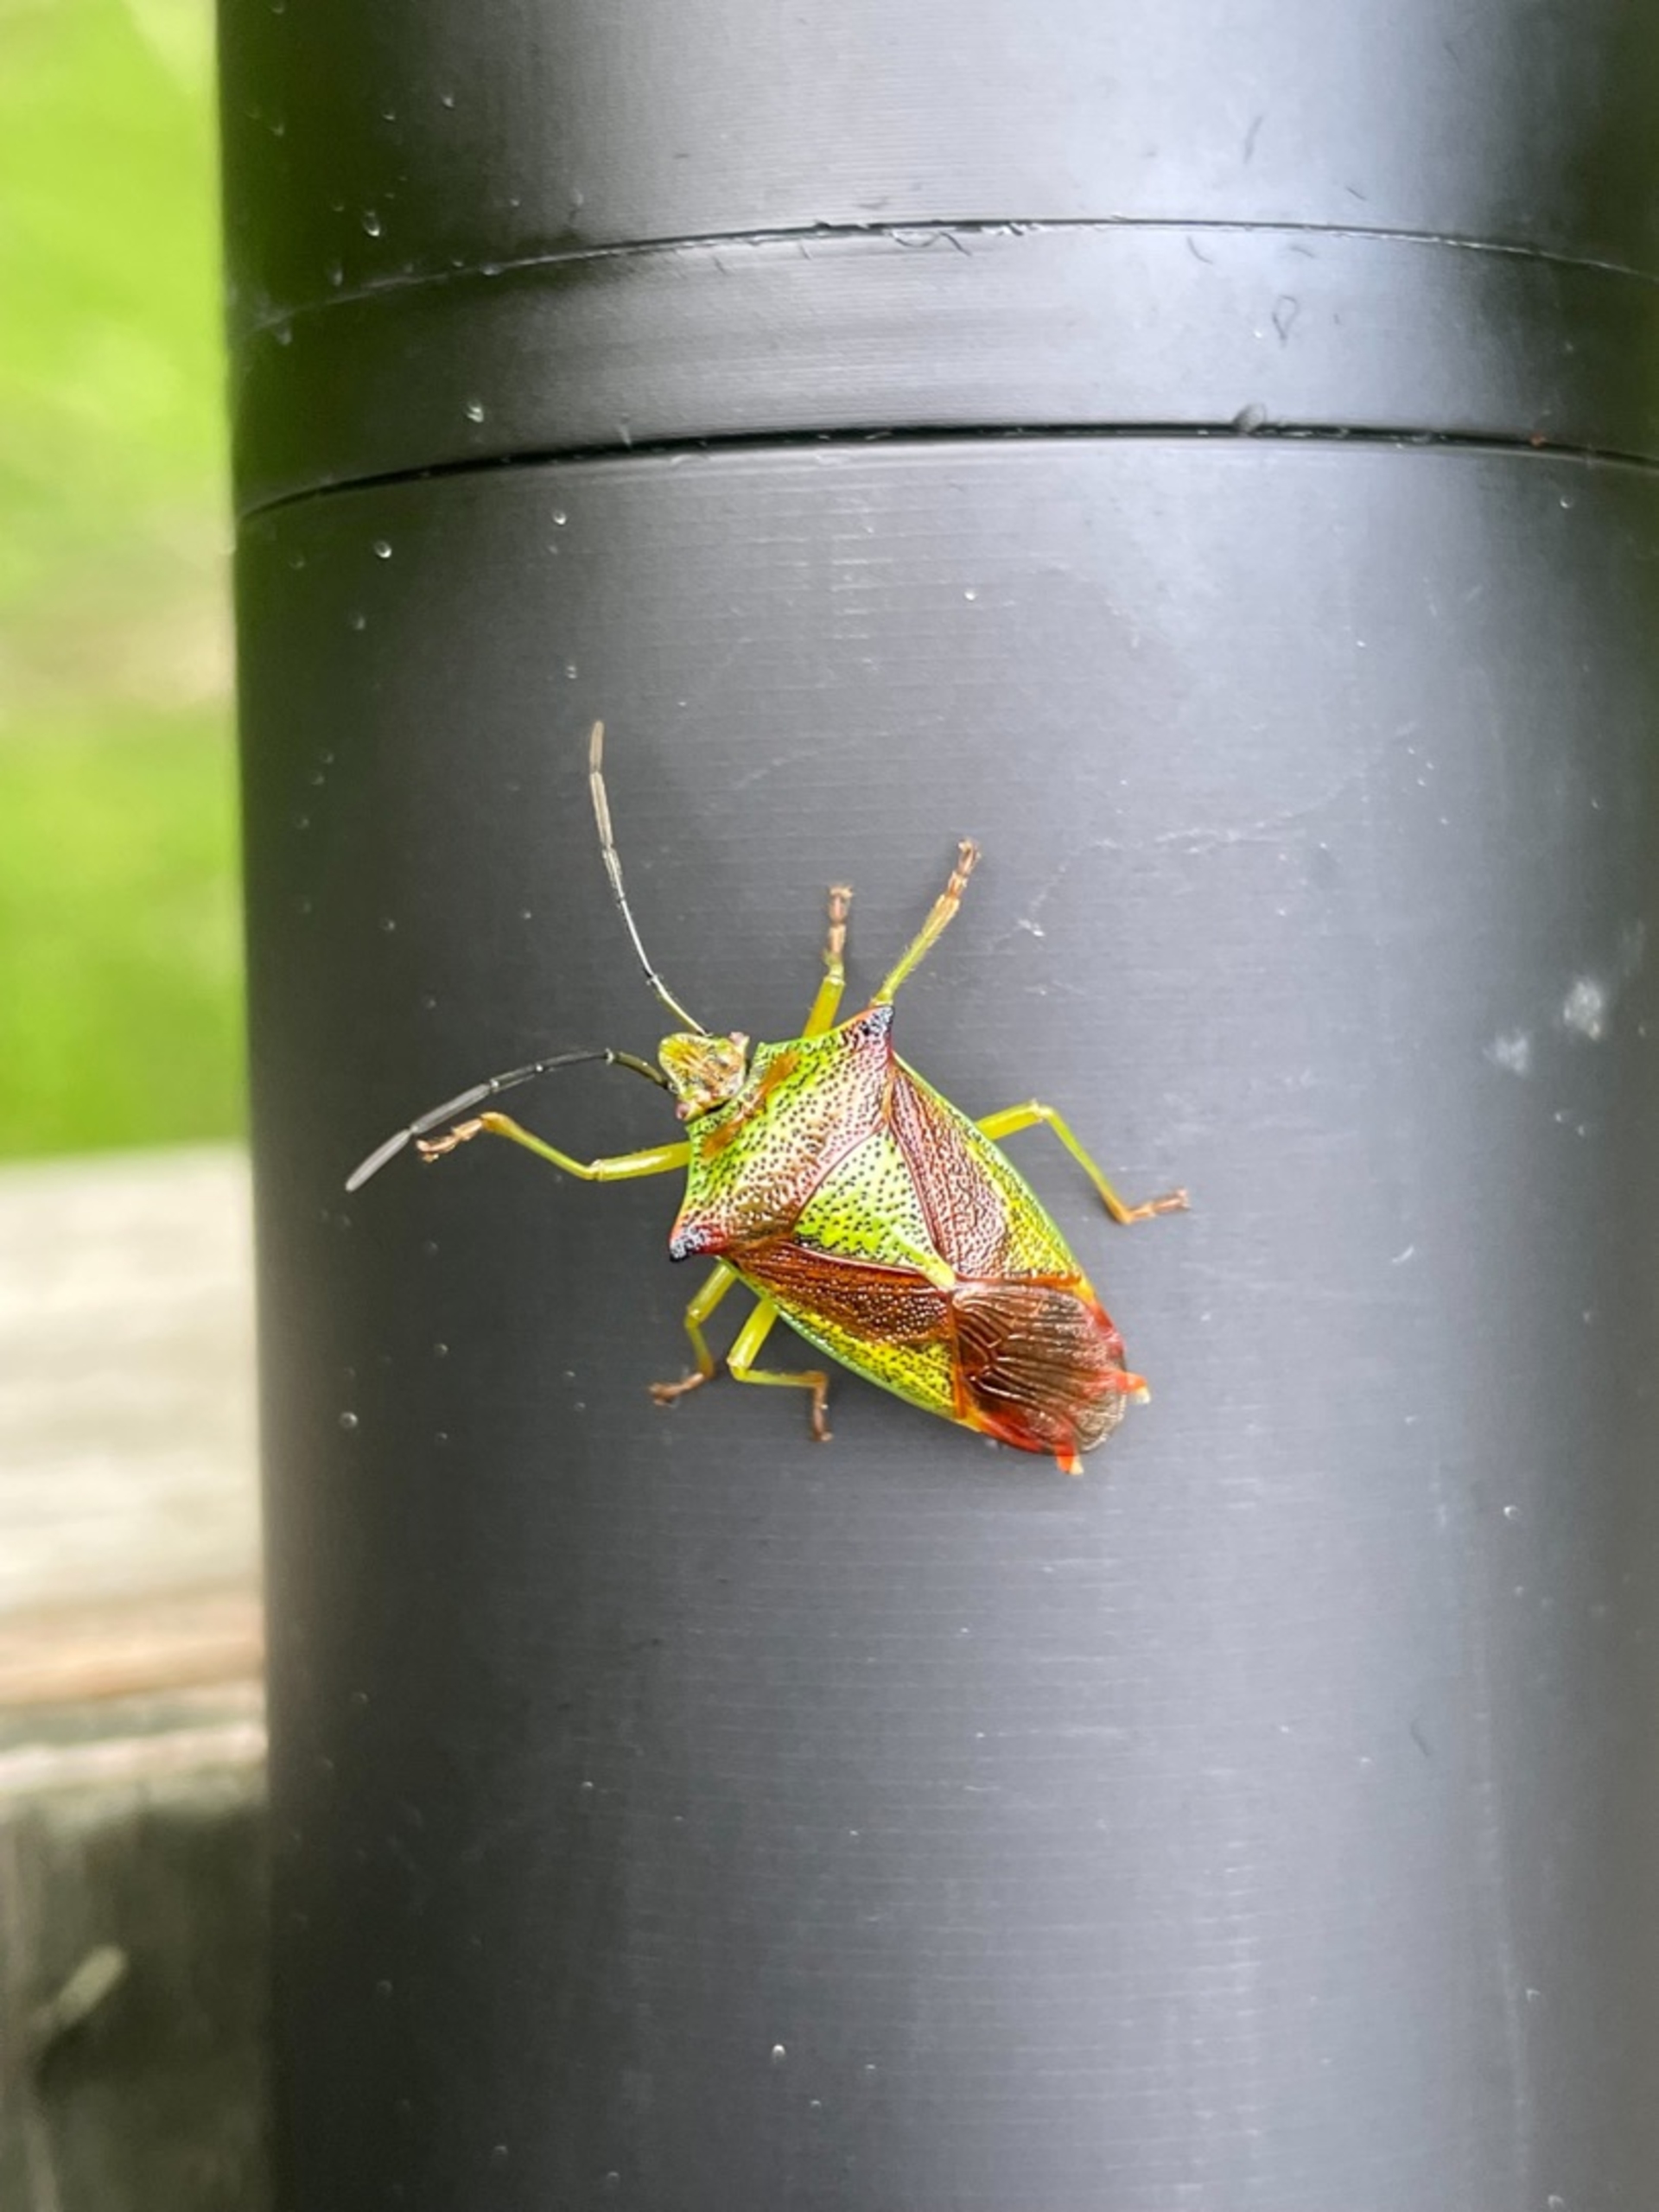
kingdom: Animalia
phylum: Arthropoda
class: Insecta
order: Hemiptera
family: Acanthosomatidae
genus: Acanthosoma
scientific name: Acanthosoma haemorrhoidale
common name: Stor løvtæge
